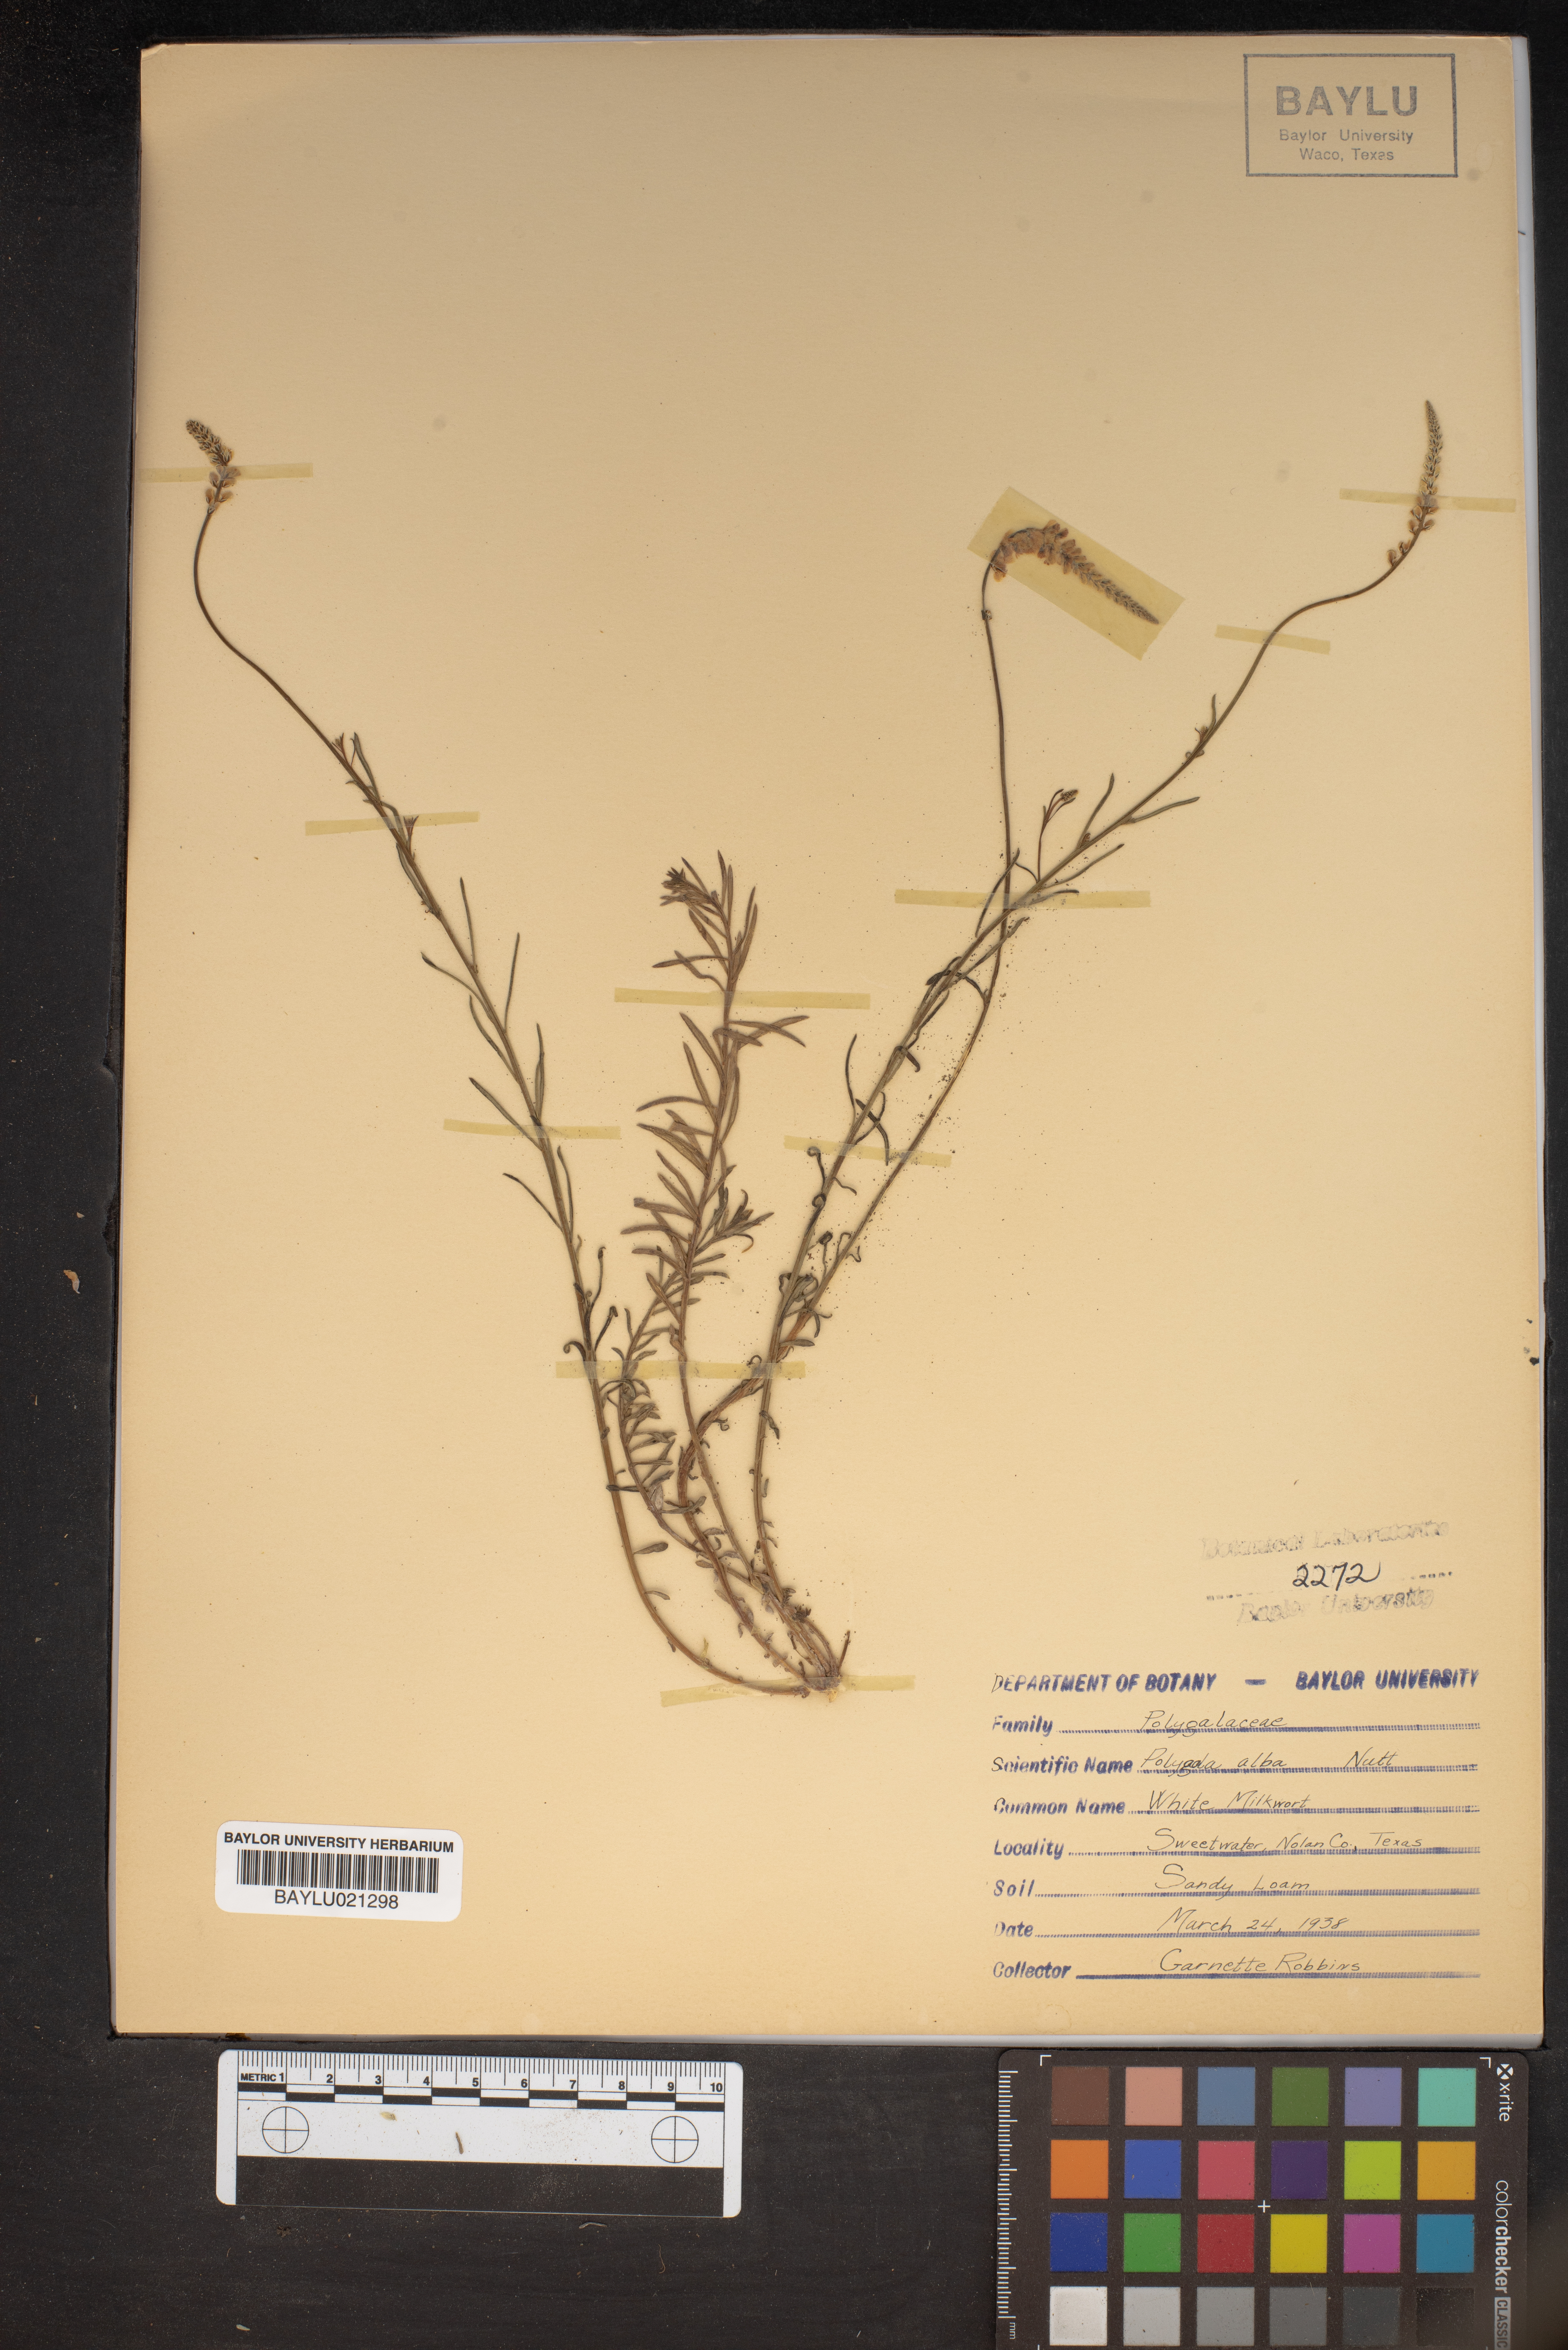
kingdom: Plantae
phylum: Tracheophyta
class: Magnoliopsida
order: Fabales
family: Polygalaceae
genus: Polygala
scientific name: Polygala alba
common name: White milkwort
